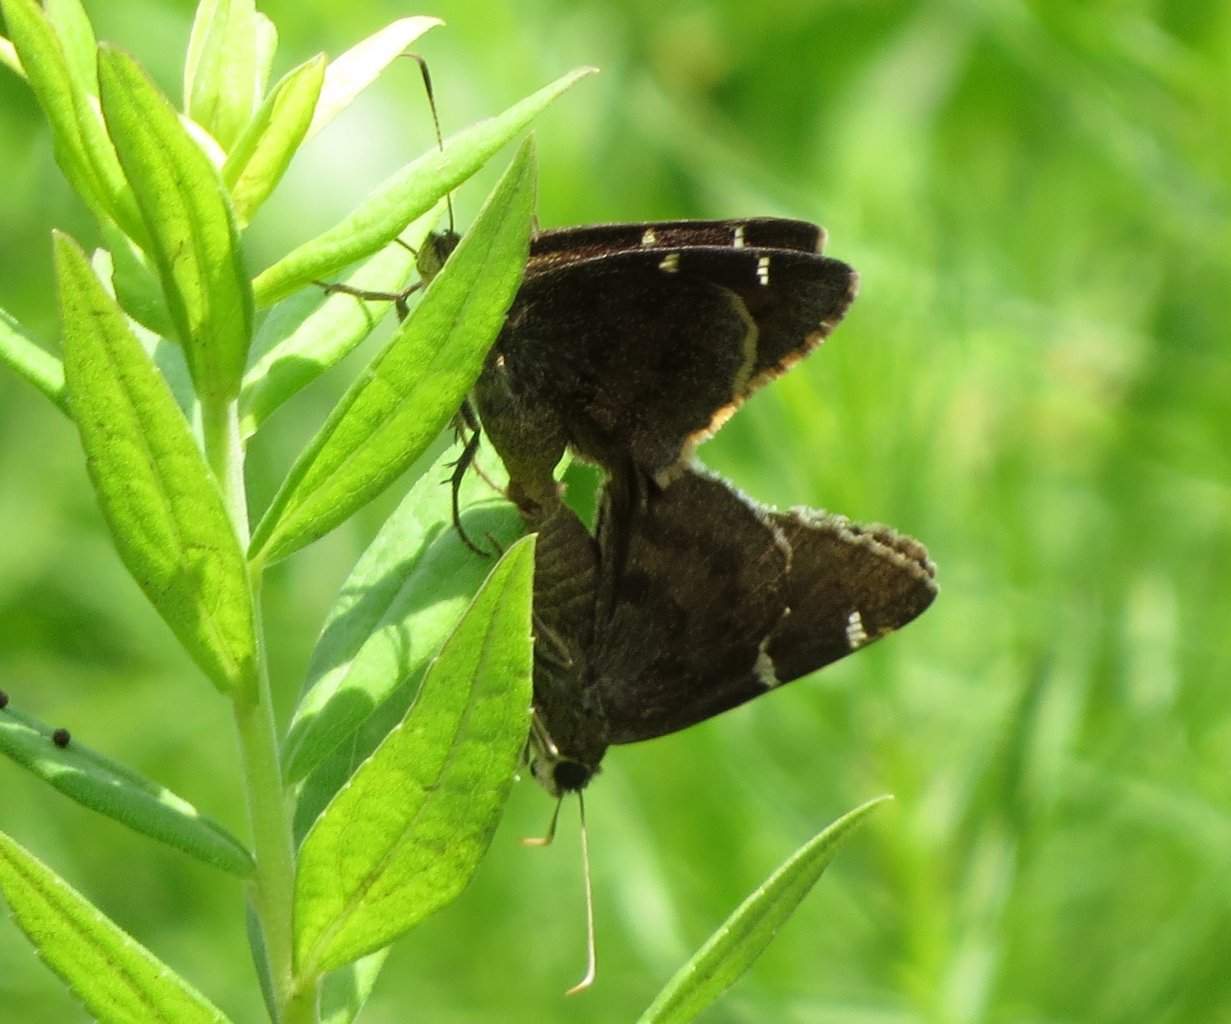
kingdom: Animalia
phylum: Arthropoda
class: Insecta
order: Lepidoptera
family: Hesperiidae
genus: Autochton
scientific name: Autochton
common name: Southern Cloudywing
